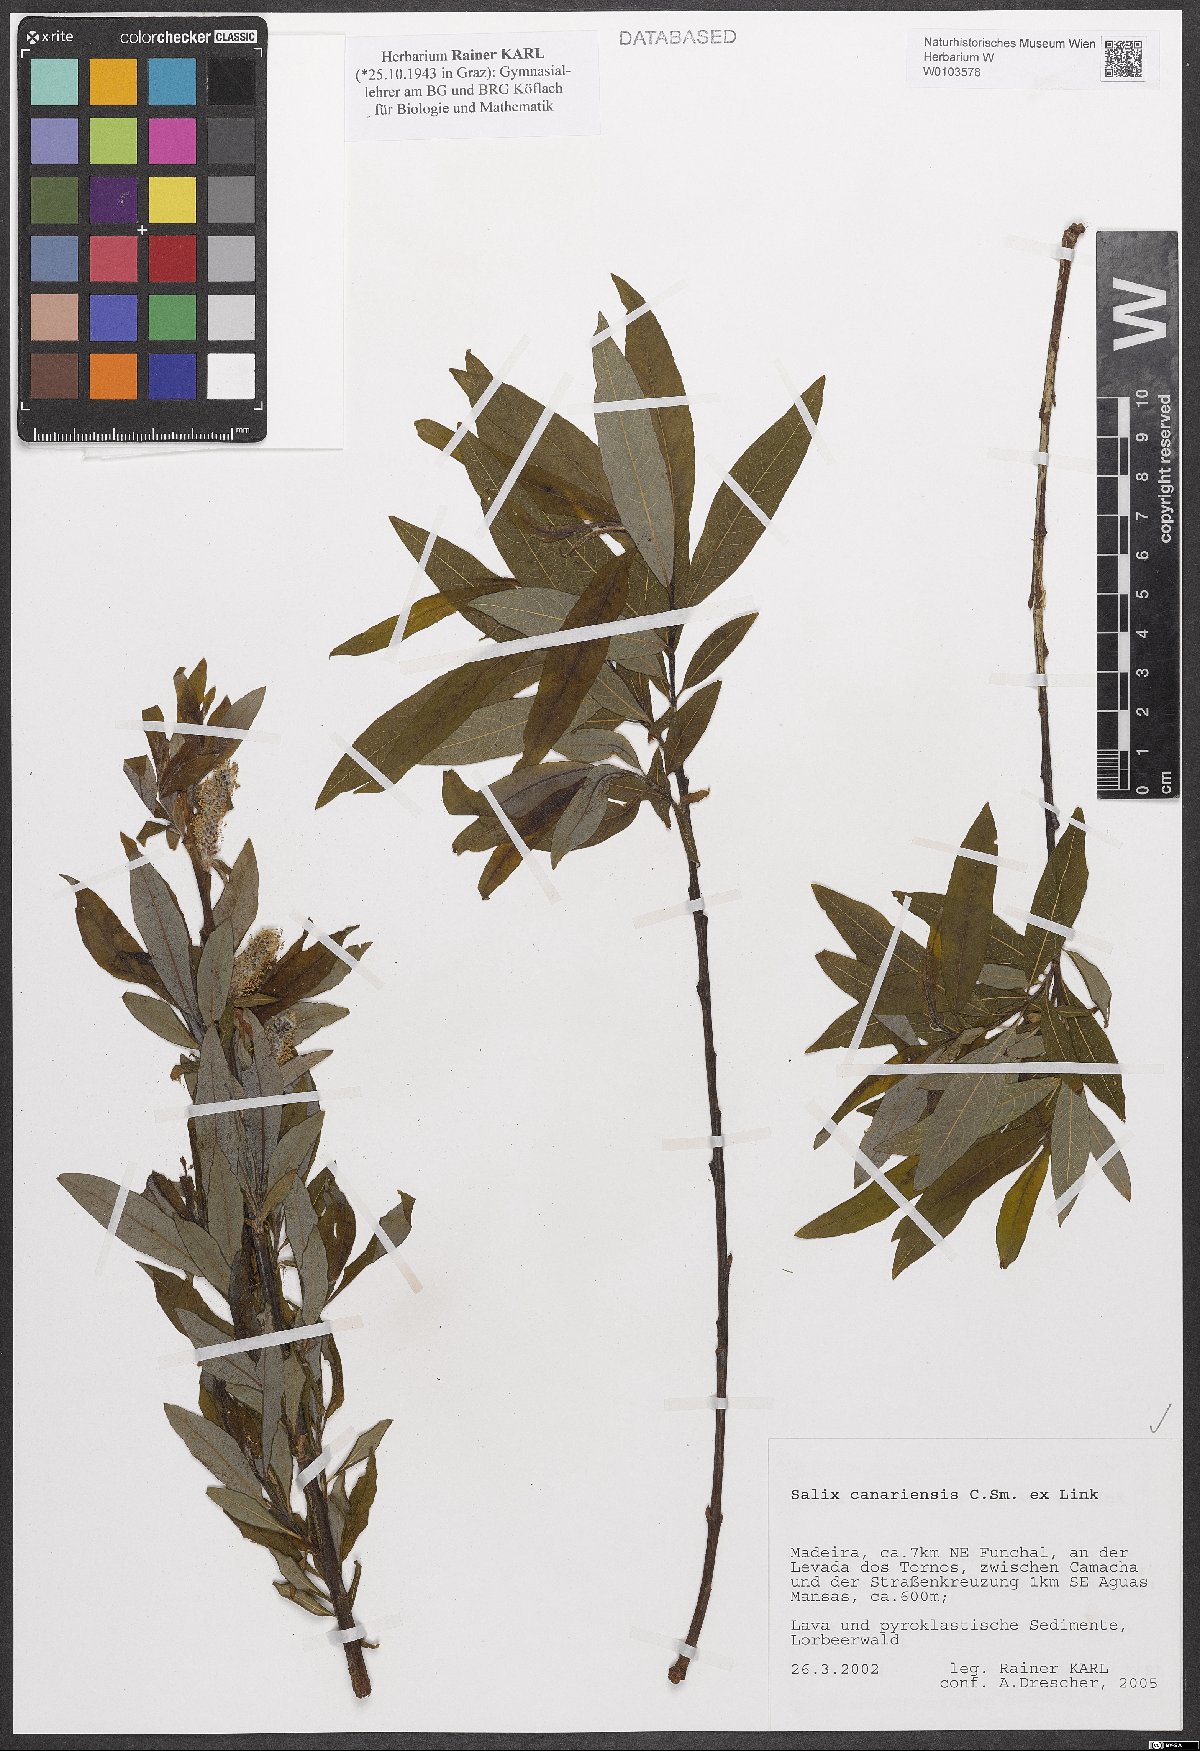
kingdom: Plantae
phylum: Tracheophyta
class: Magnoliopsida
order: Malpighiales
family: Salicaceae
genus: Salix
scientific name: Salix canariensis
